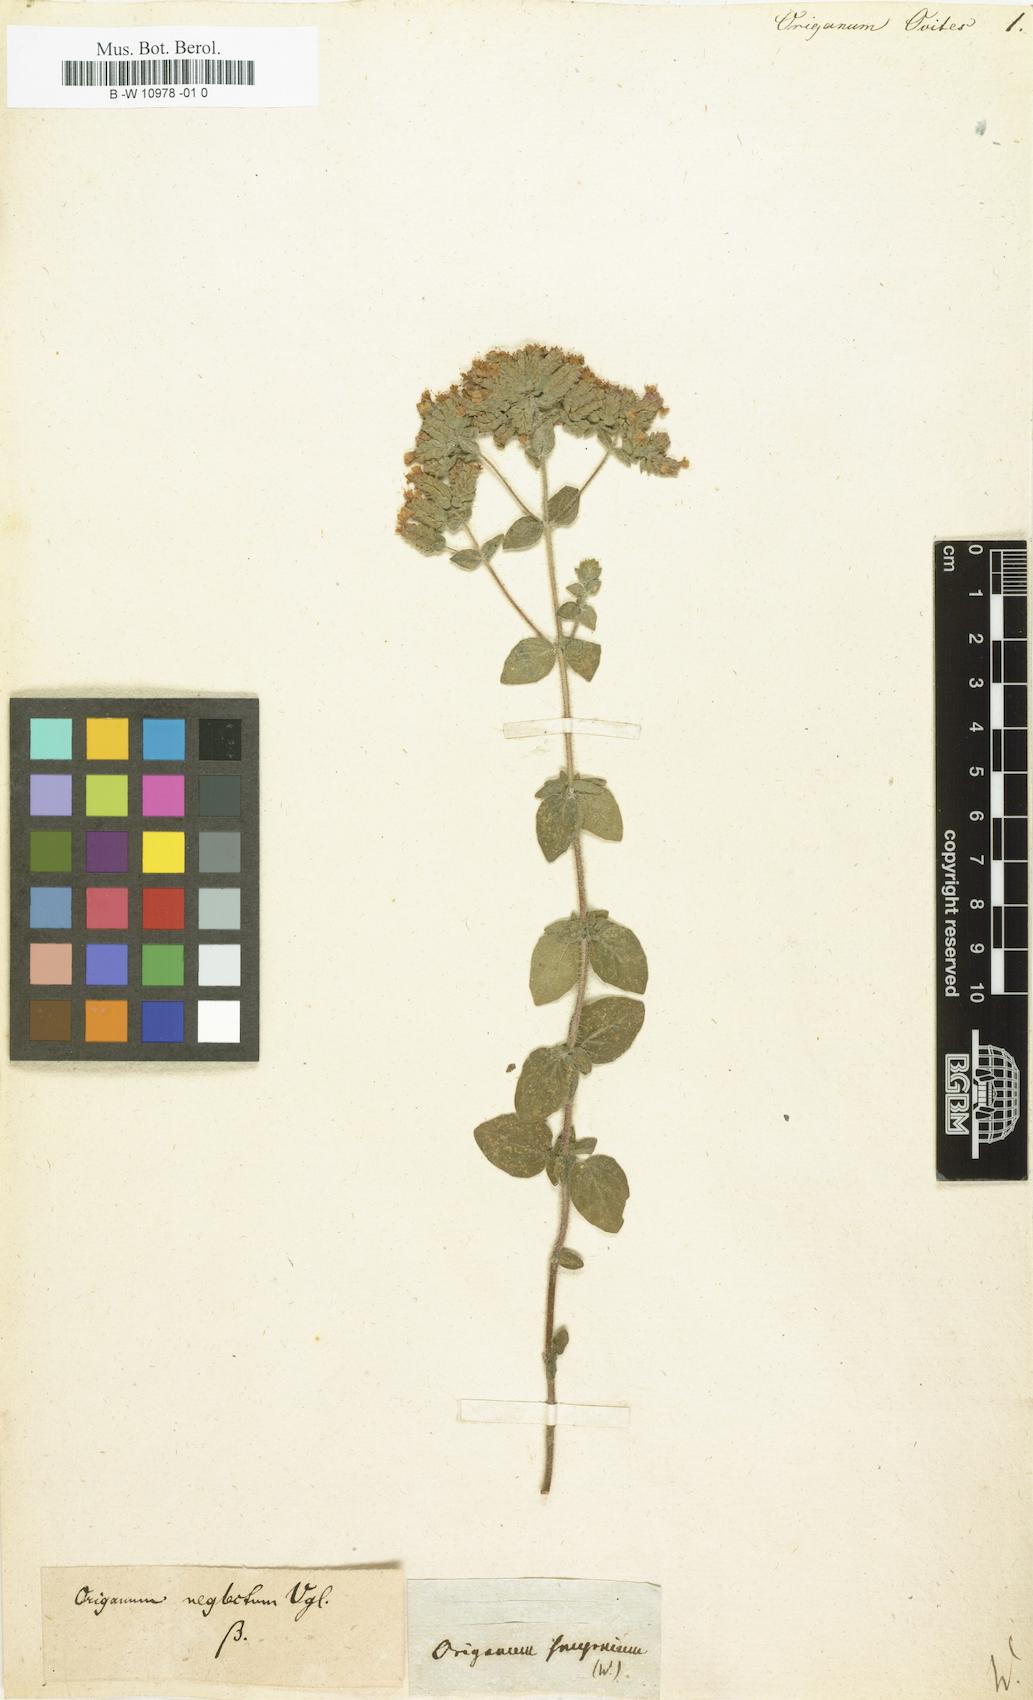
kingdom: Plantae
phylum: Tracheophyta
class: Magnoliopsida
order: Lamiales
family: Lamiaceae
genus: Origanum
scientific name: Origanum onites
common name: Turkish oregano
